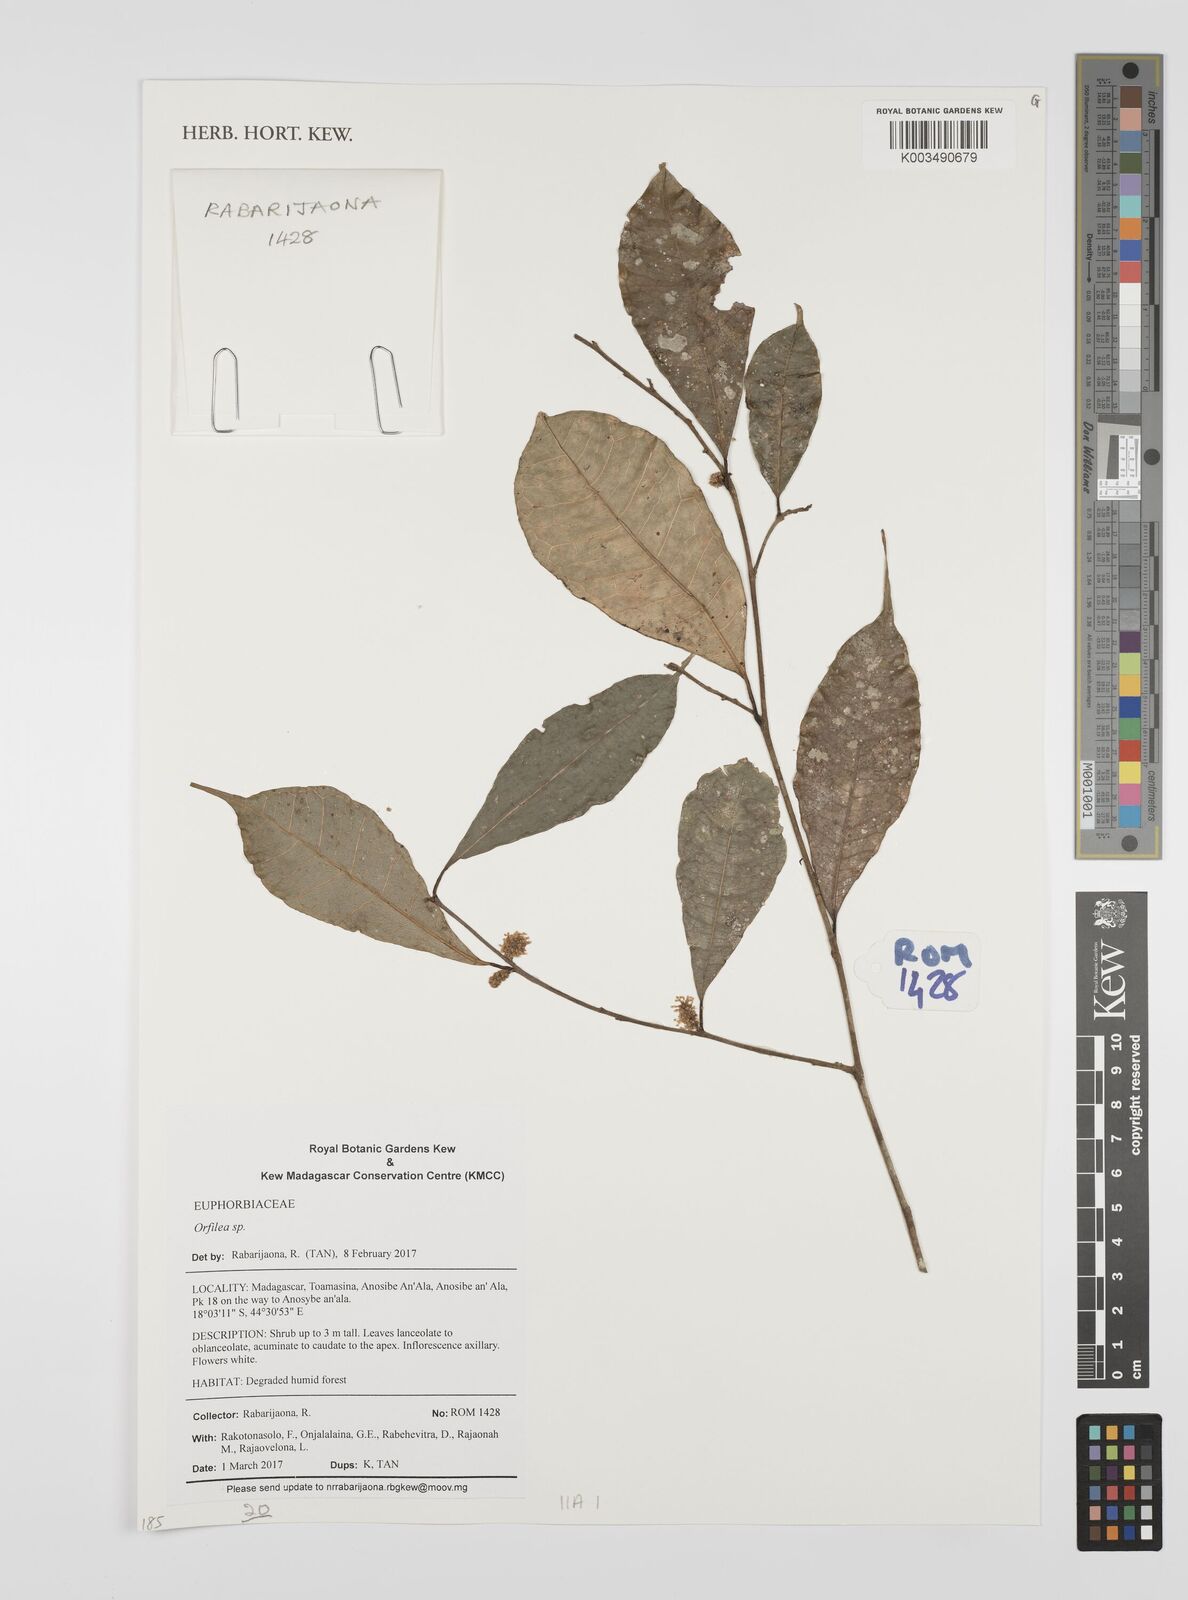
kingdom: Plantae
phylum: Tracheophyta
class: Magnoliopsida
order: Malpighiales
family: Euphorbiaceae
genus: Orfilea
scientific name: Orfilea
